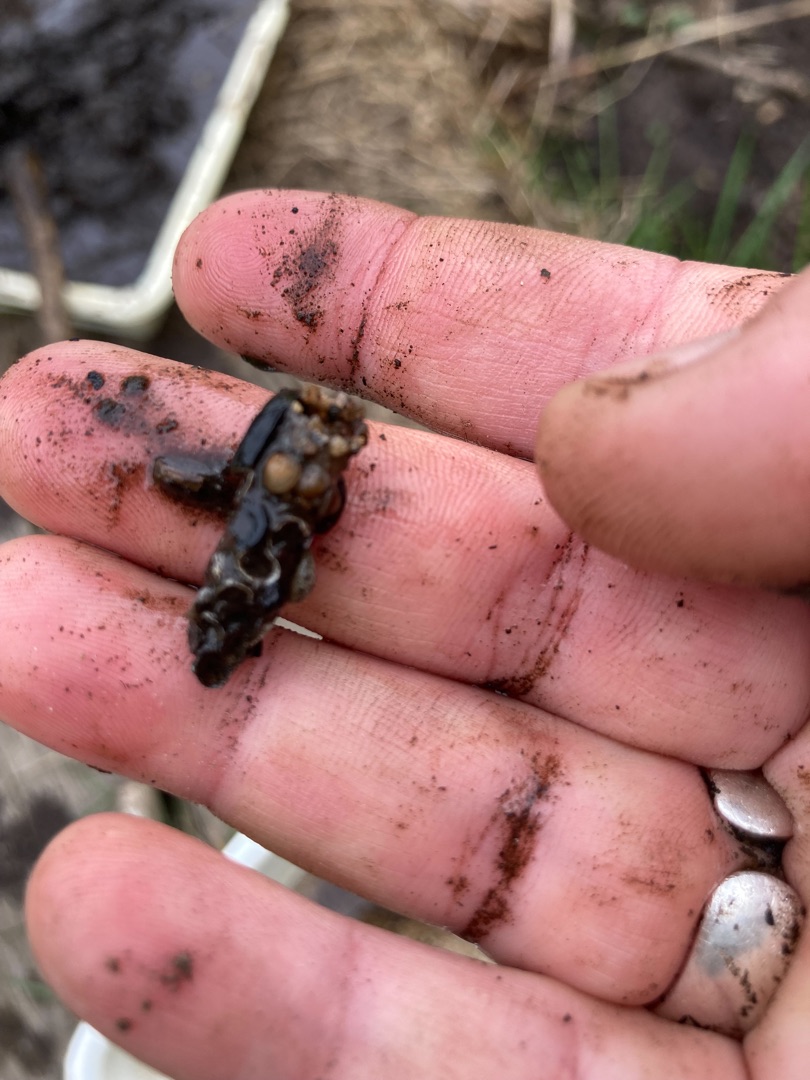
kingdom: Animalia
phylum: Arthropoda
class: Insecta
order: Trichoptera
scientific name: Trichoptera
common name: Vårfluer
